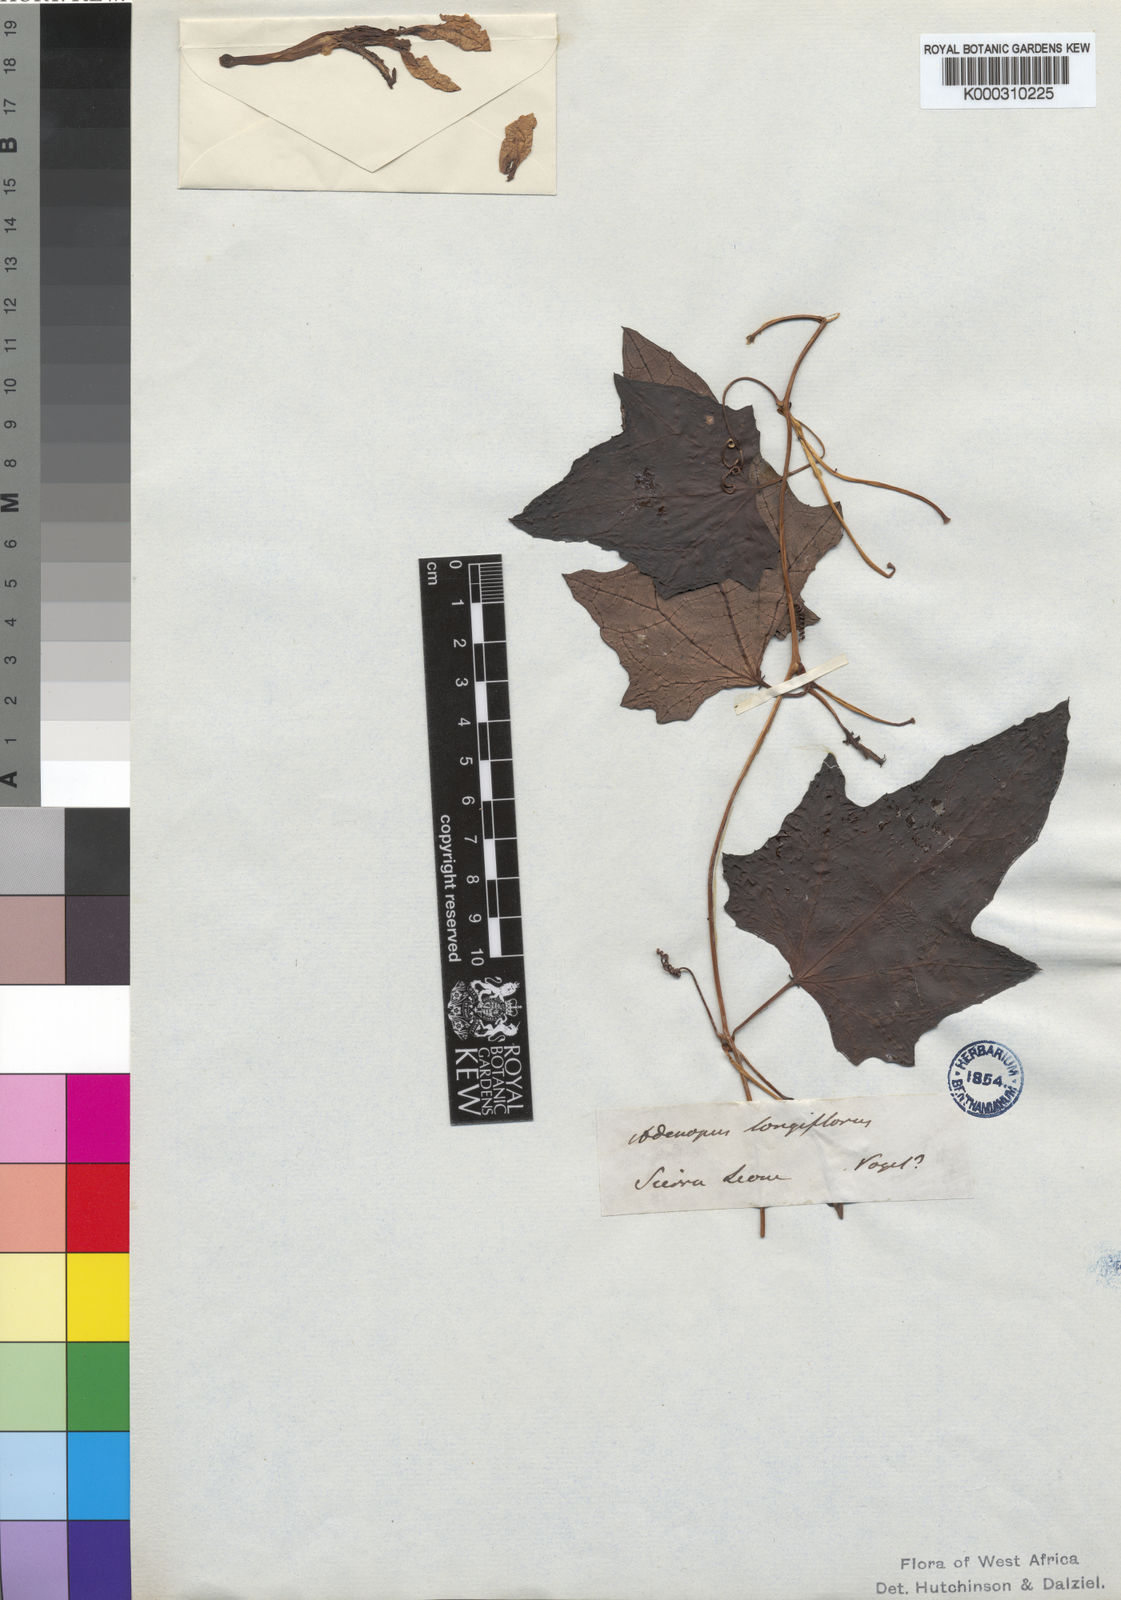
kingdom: Plantae
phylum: Tracheophyta
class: Magnoliopsida
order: Cucurbitales
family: Cucurbitaceae
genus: Lagenaria
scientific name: Lagenaria guineensis
